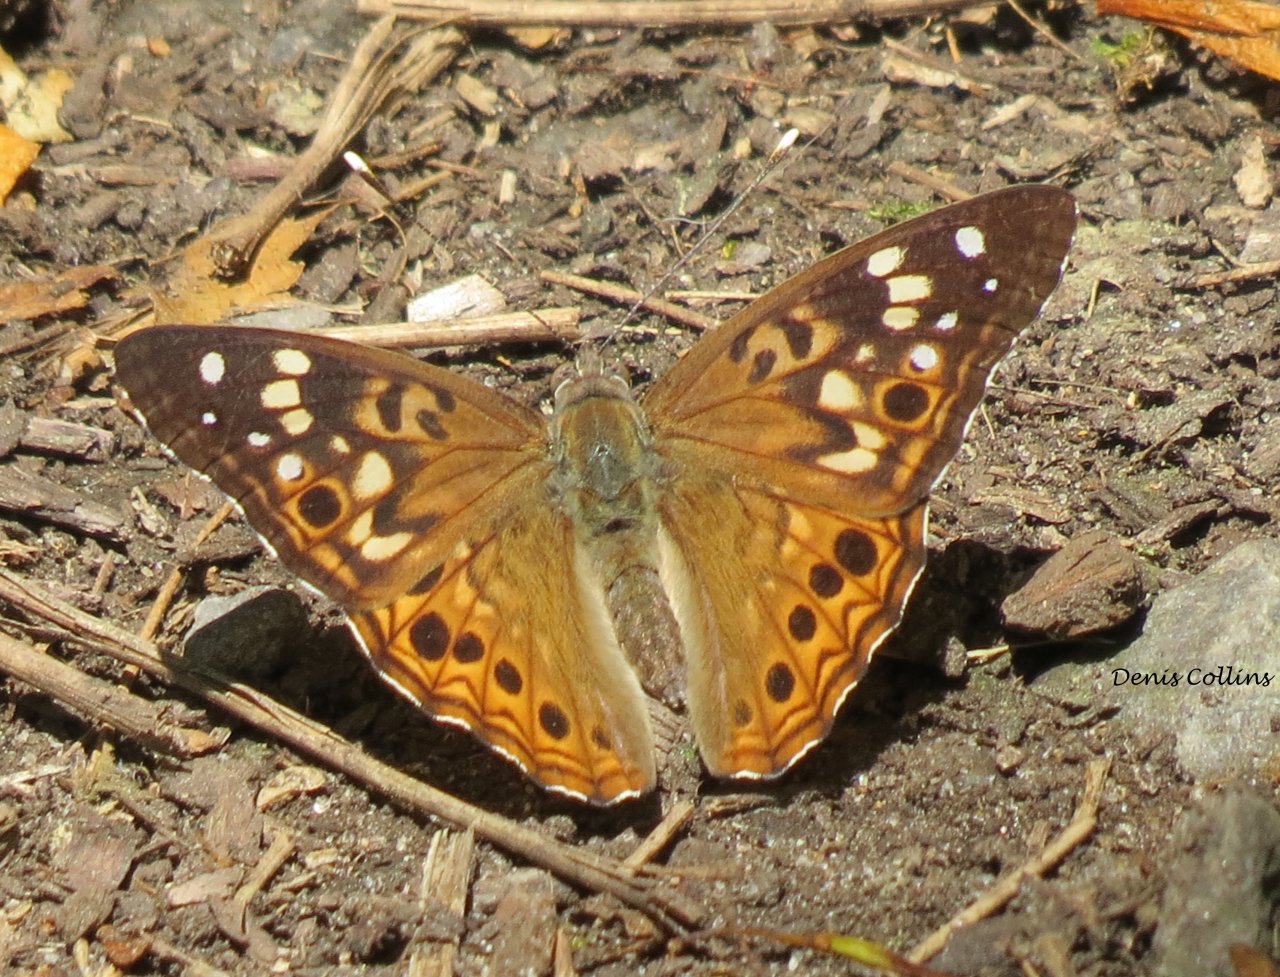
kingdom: Animalia
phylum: Arthropoda
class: Insecta
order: Lepidoptera
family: Nymphalidae
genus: Asterocampa
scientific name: Asterocampa celtis
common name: Hackberry Emperor
